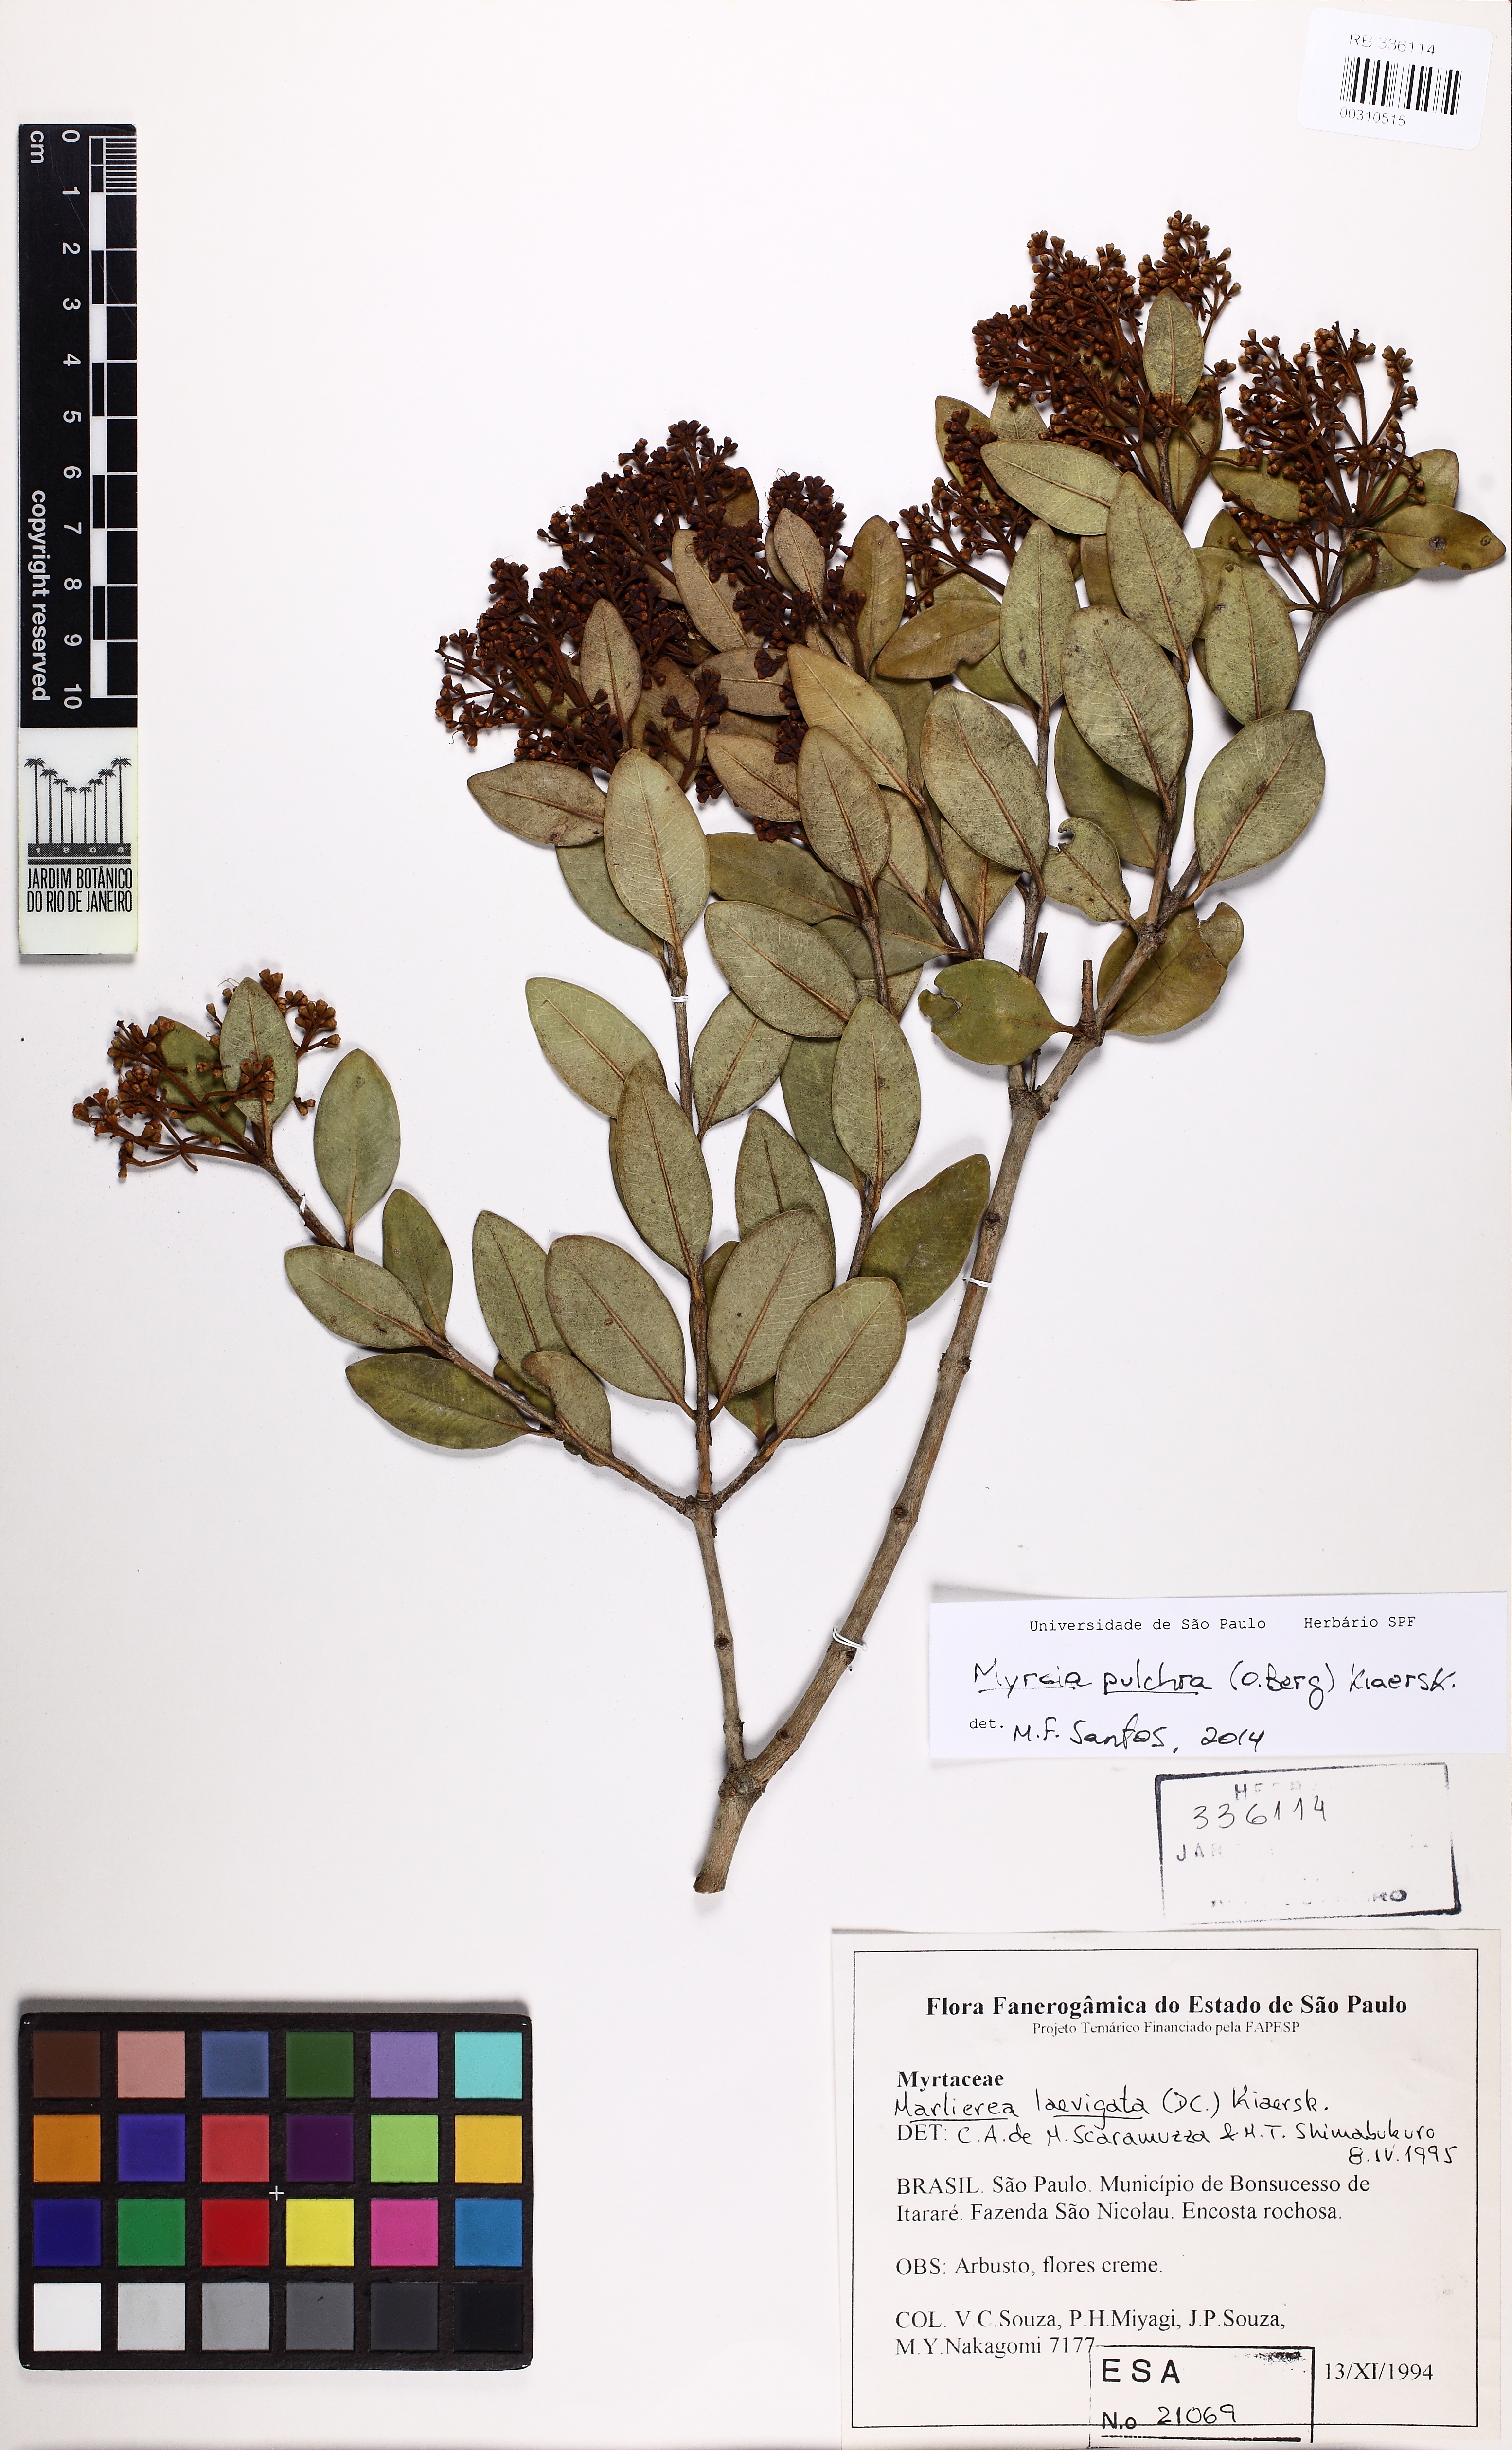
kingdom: Plantae
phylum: Tracheophyta
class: Magnoliopsida
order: Myrtales
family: Myrtaceae
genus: Myrcia
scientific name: Myrcia pulchra
